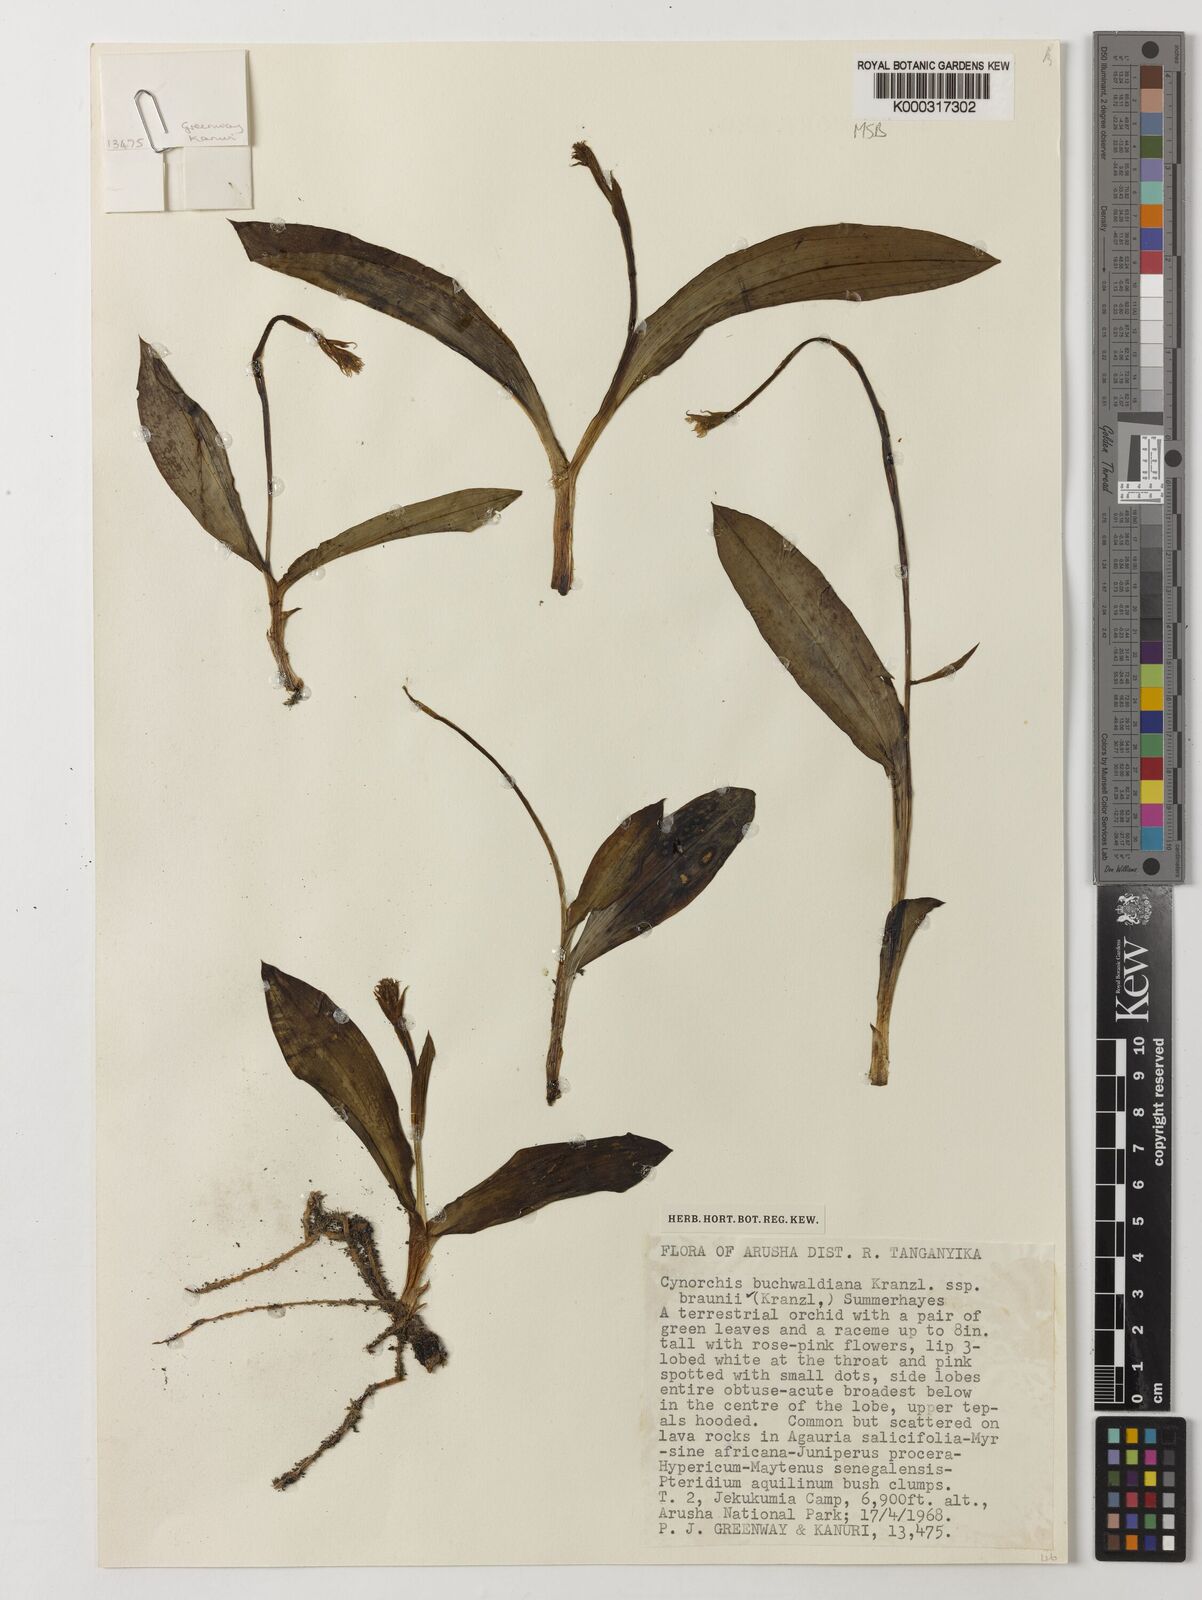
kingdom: Plantae
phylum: Tracheophyta
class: Liliopsida
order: Asparagales
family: Orchidaceae
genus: Cynorkis
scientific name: Cynorkis buchwaldiana
